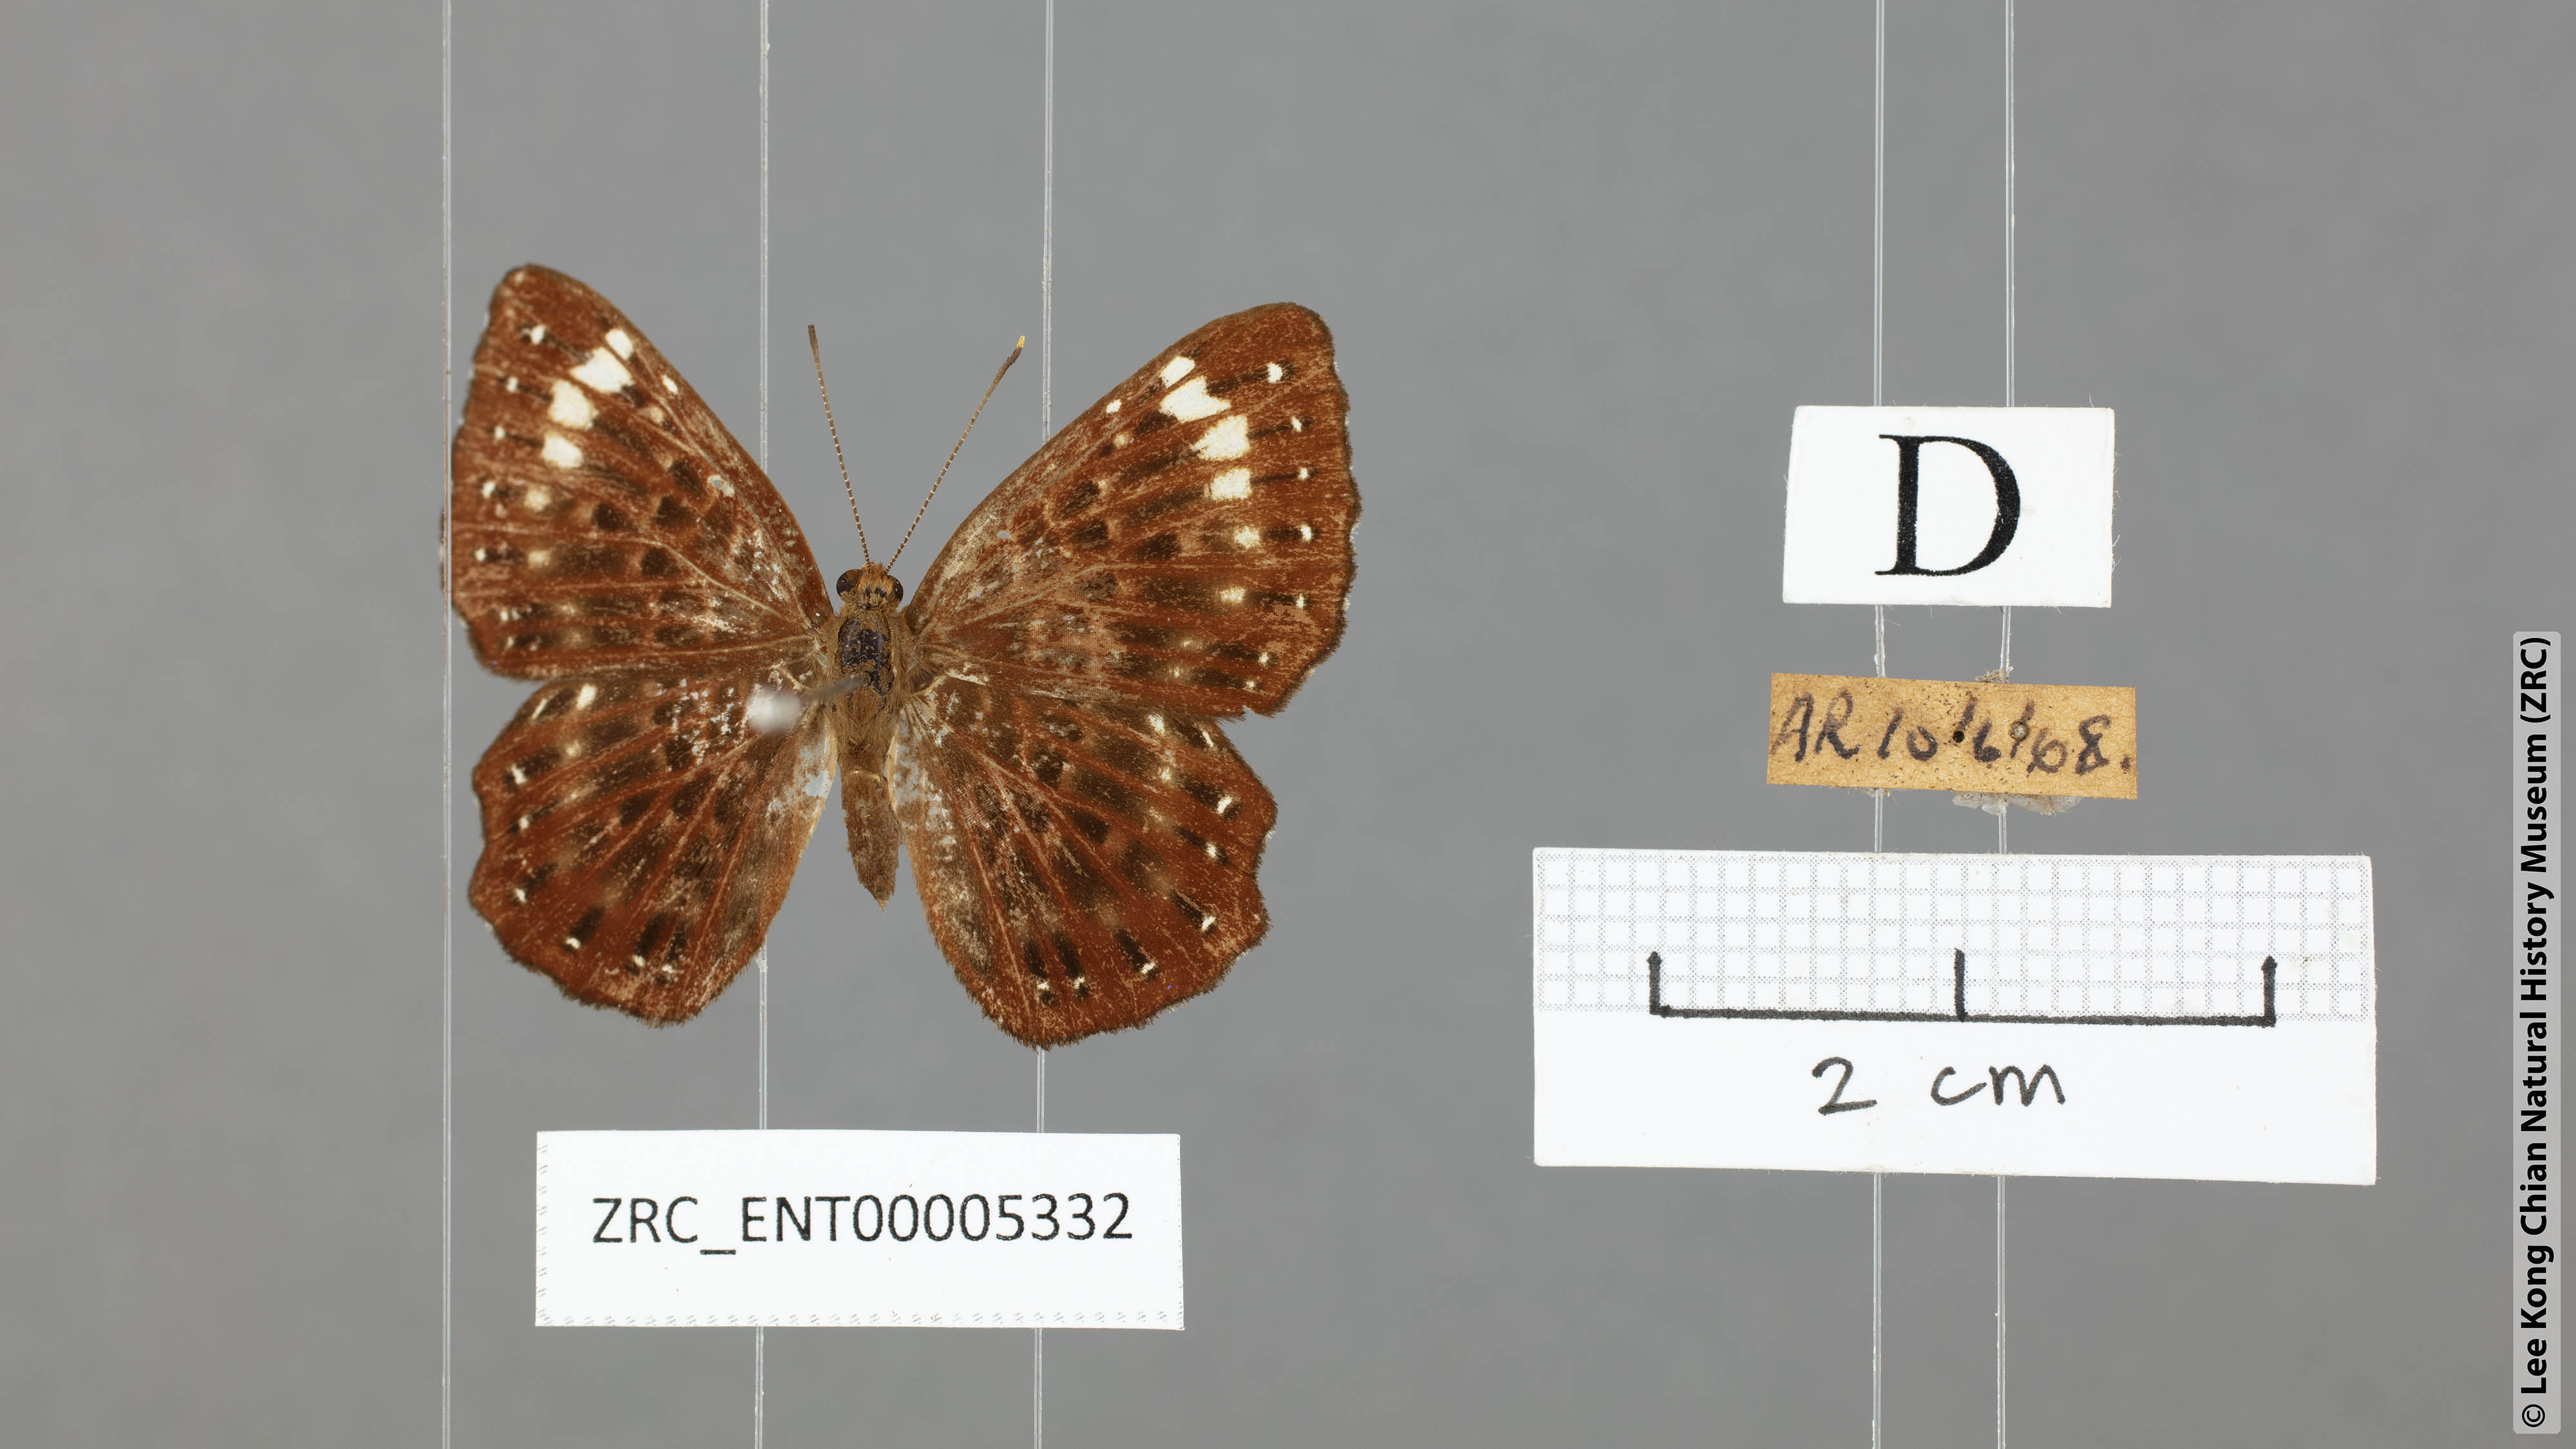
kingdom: Animalia
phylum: Arthropoda
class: Insecta
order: Lepidoptera
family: Riodinidae
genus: Zemeros
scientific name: Zemeros flegyas
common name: Punchinello
